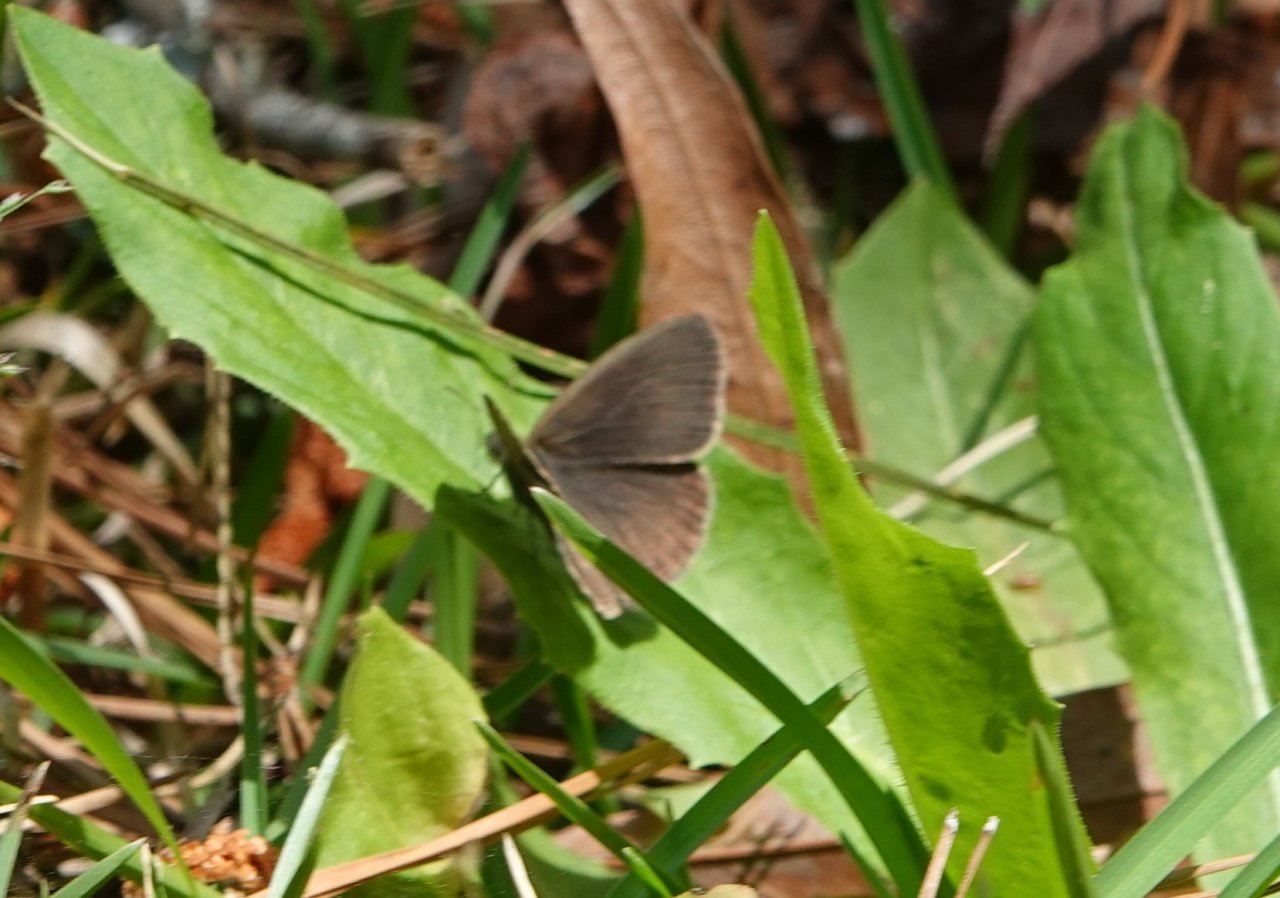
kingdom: Animalia
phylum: Arthropoda
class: Insecta
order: Lepidoptera
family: Nymphalidae
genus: Hermeuptychia
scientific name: Hermeuptychia hermes
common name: Carolina Satyr
